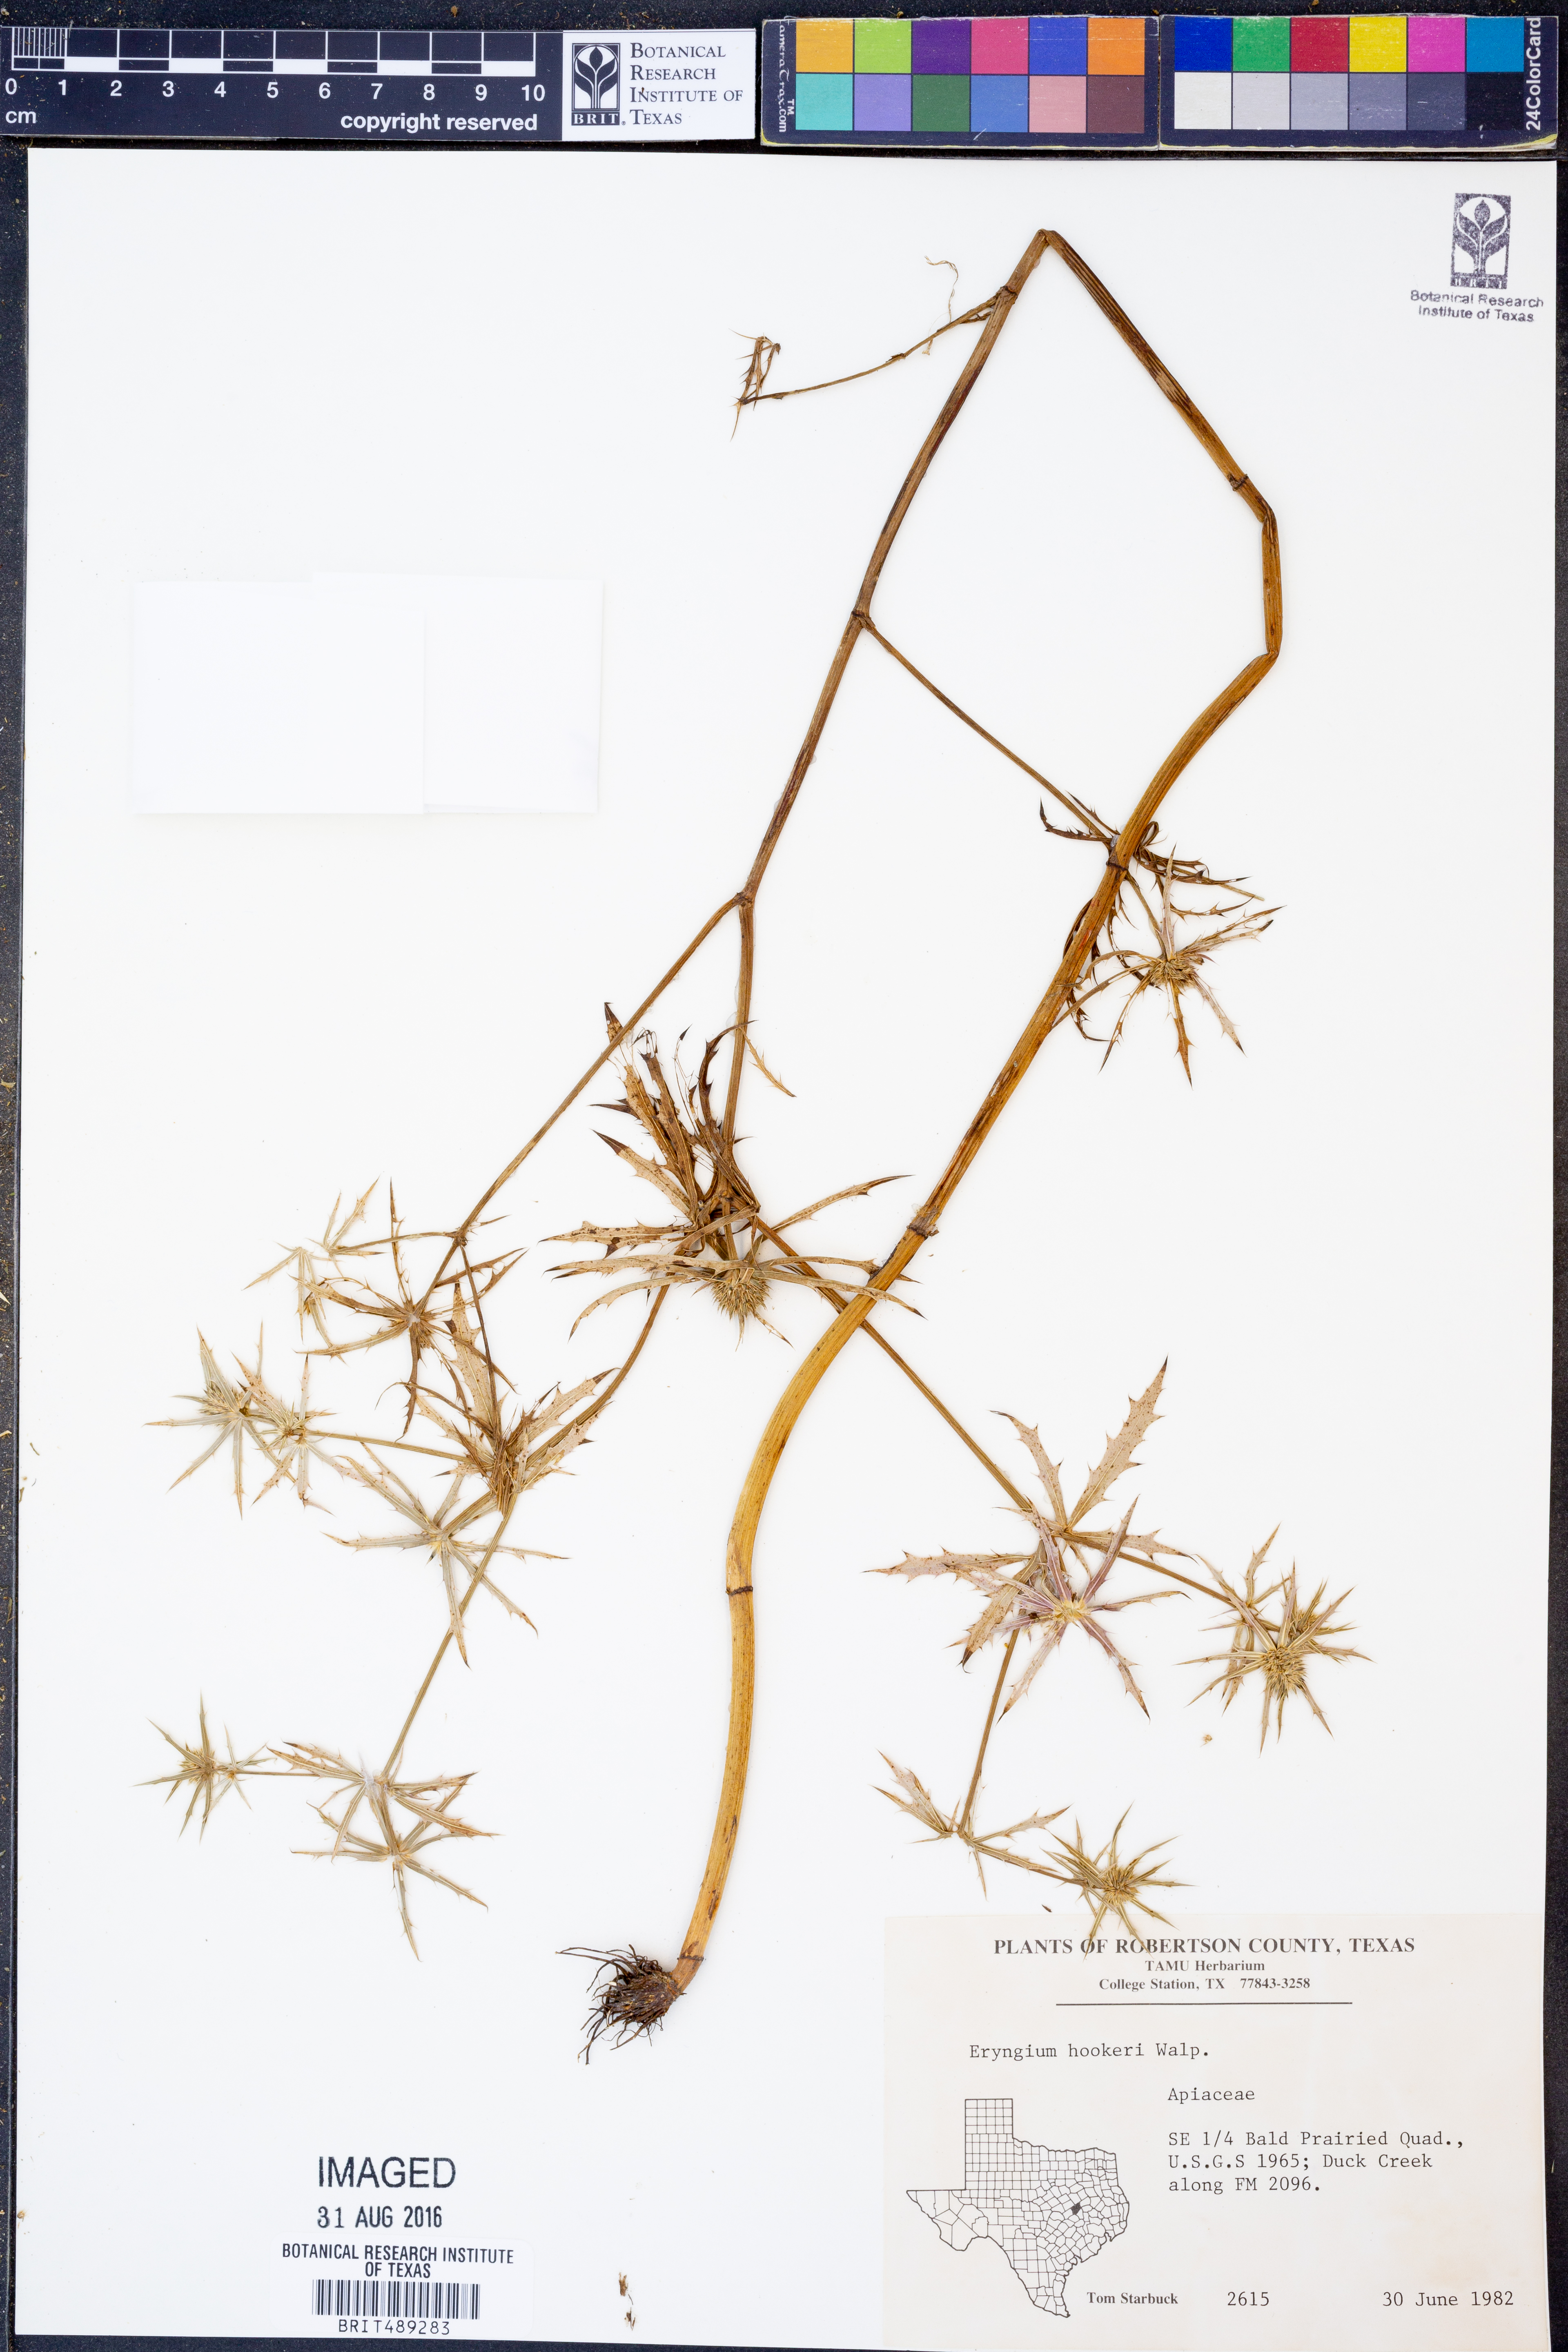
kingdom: Plantae
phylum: Tracheophyta
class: Magnoliopsida
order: Apiales
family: Apiaceae
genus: Eryngium
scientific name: Eryngium hookeri
